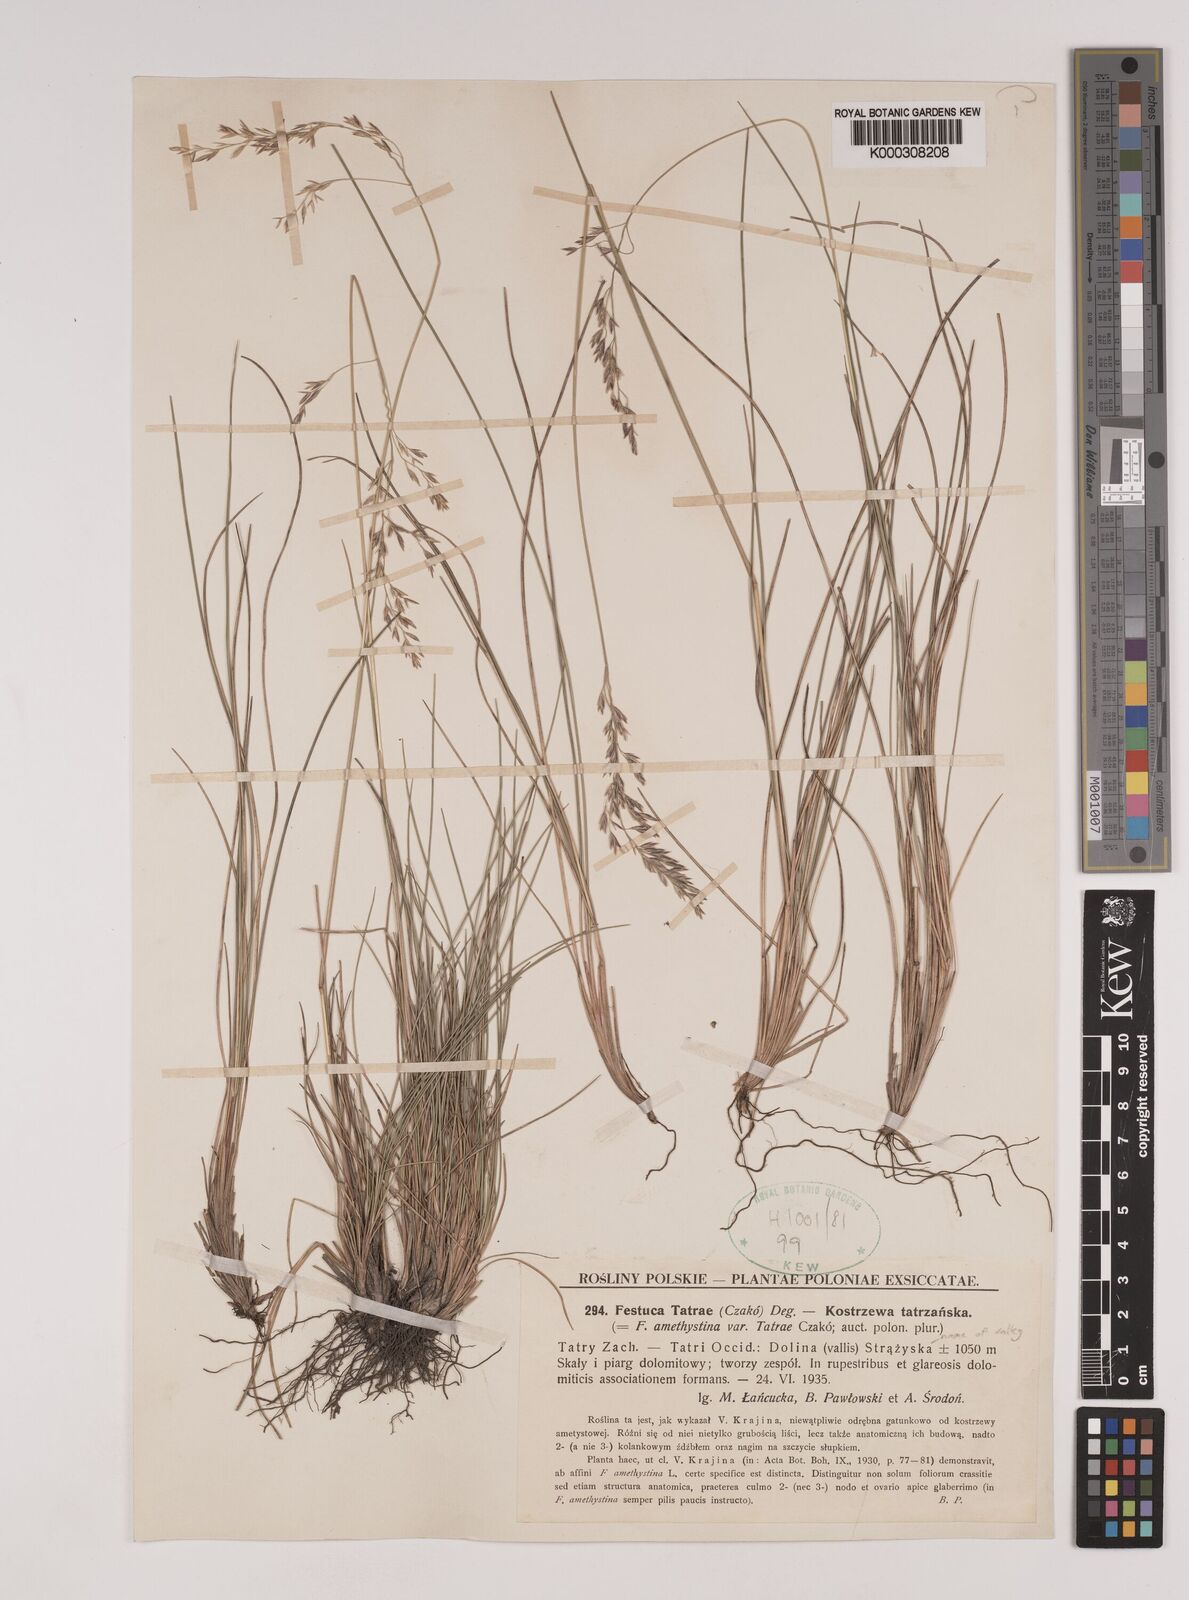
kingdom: Plantae
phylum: Tracheophyta
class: Liliopsida
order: Poales
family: Poaceae
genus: Festuca
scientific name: Festuca
